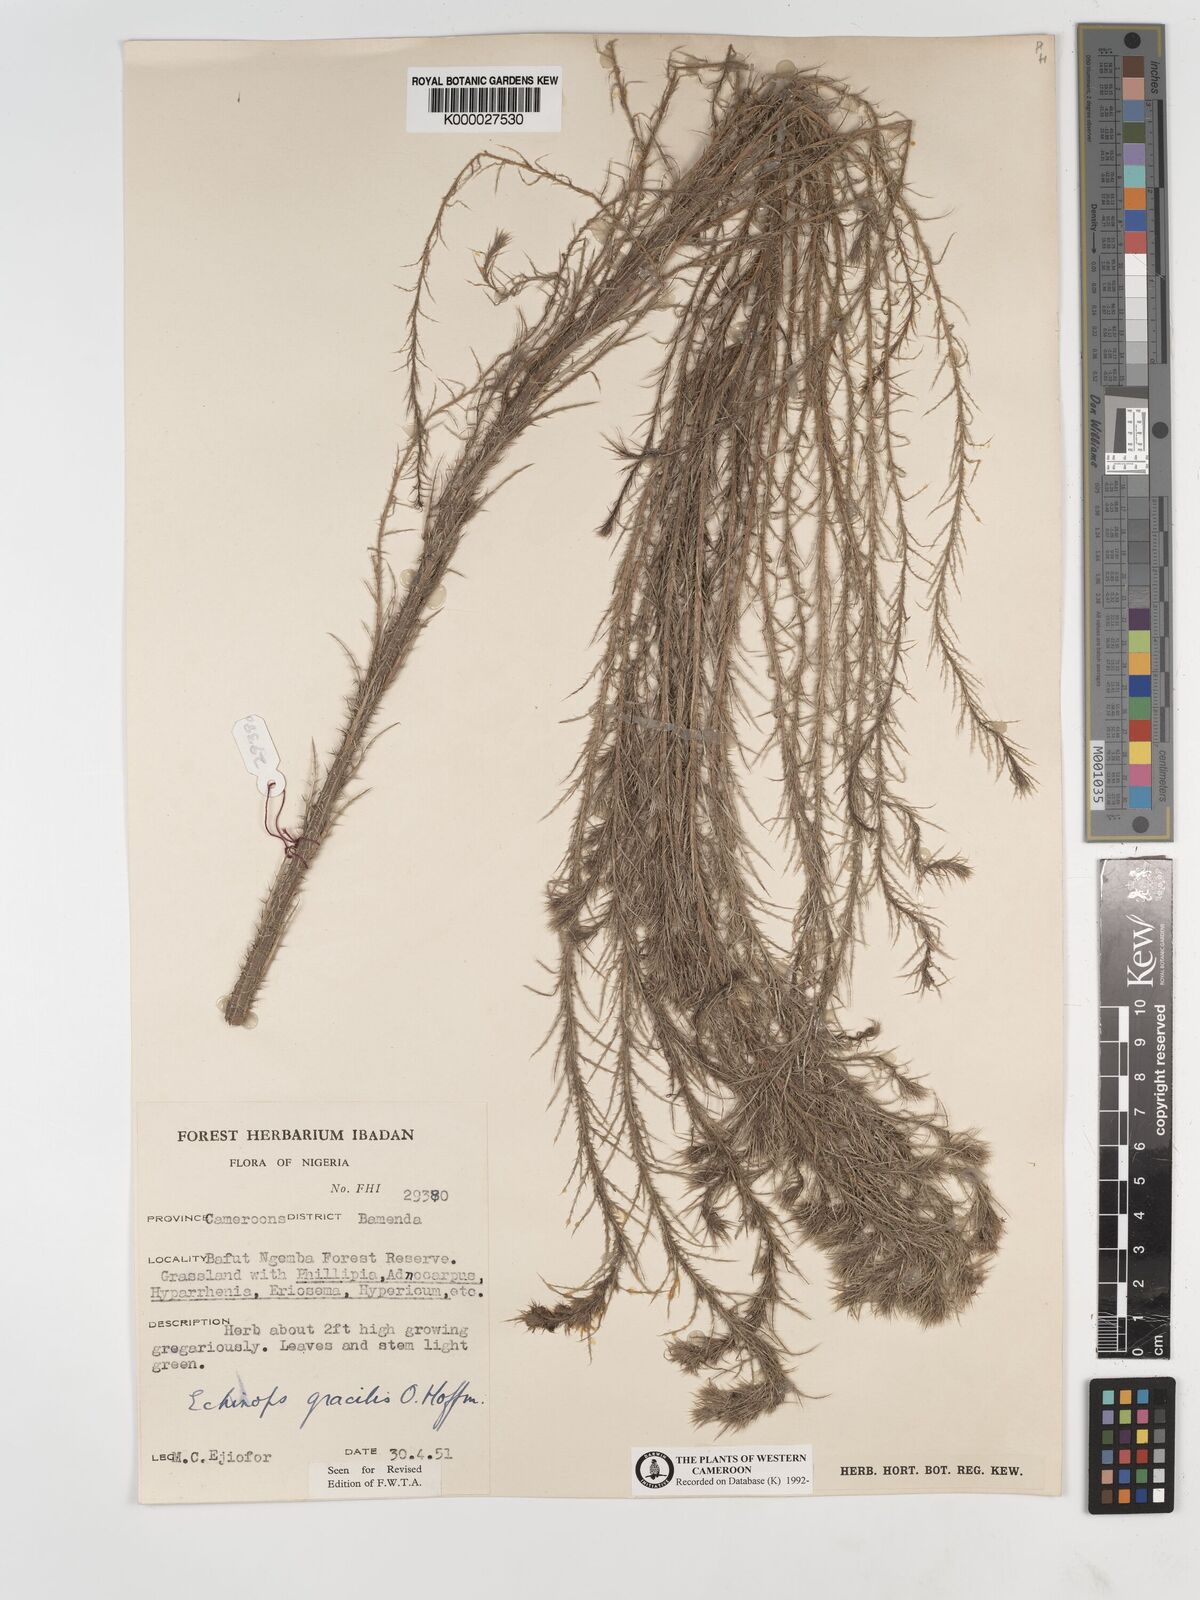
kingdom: Plantae
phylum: Tracheophyta
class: Magnoliopsida
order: Asterales
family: Asteraceae
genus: Echinops
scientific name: Echinops gracilis
